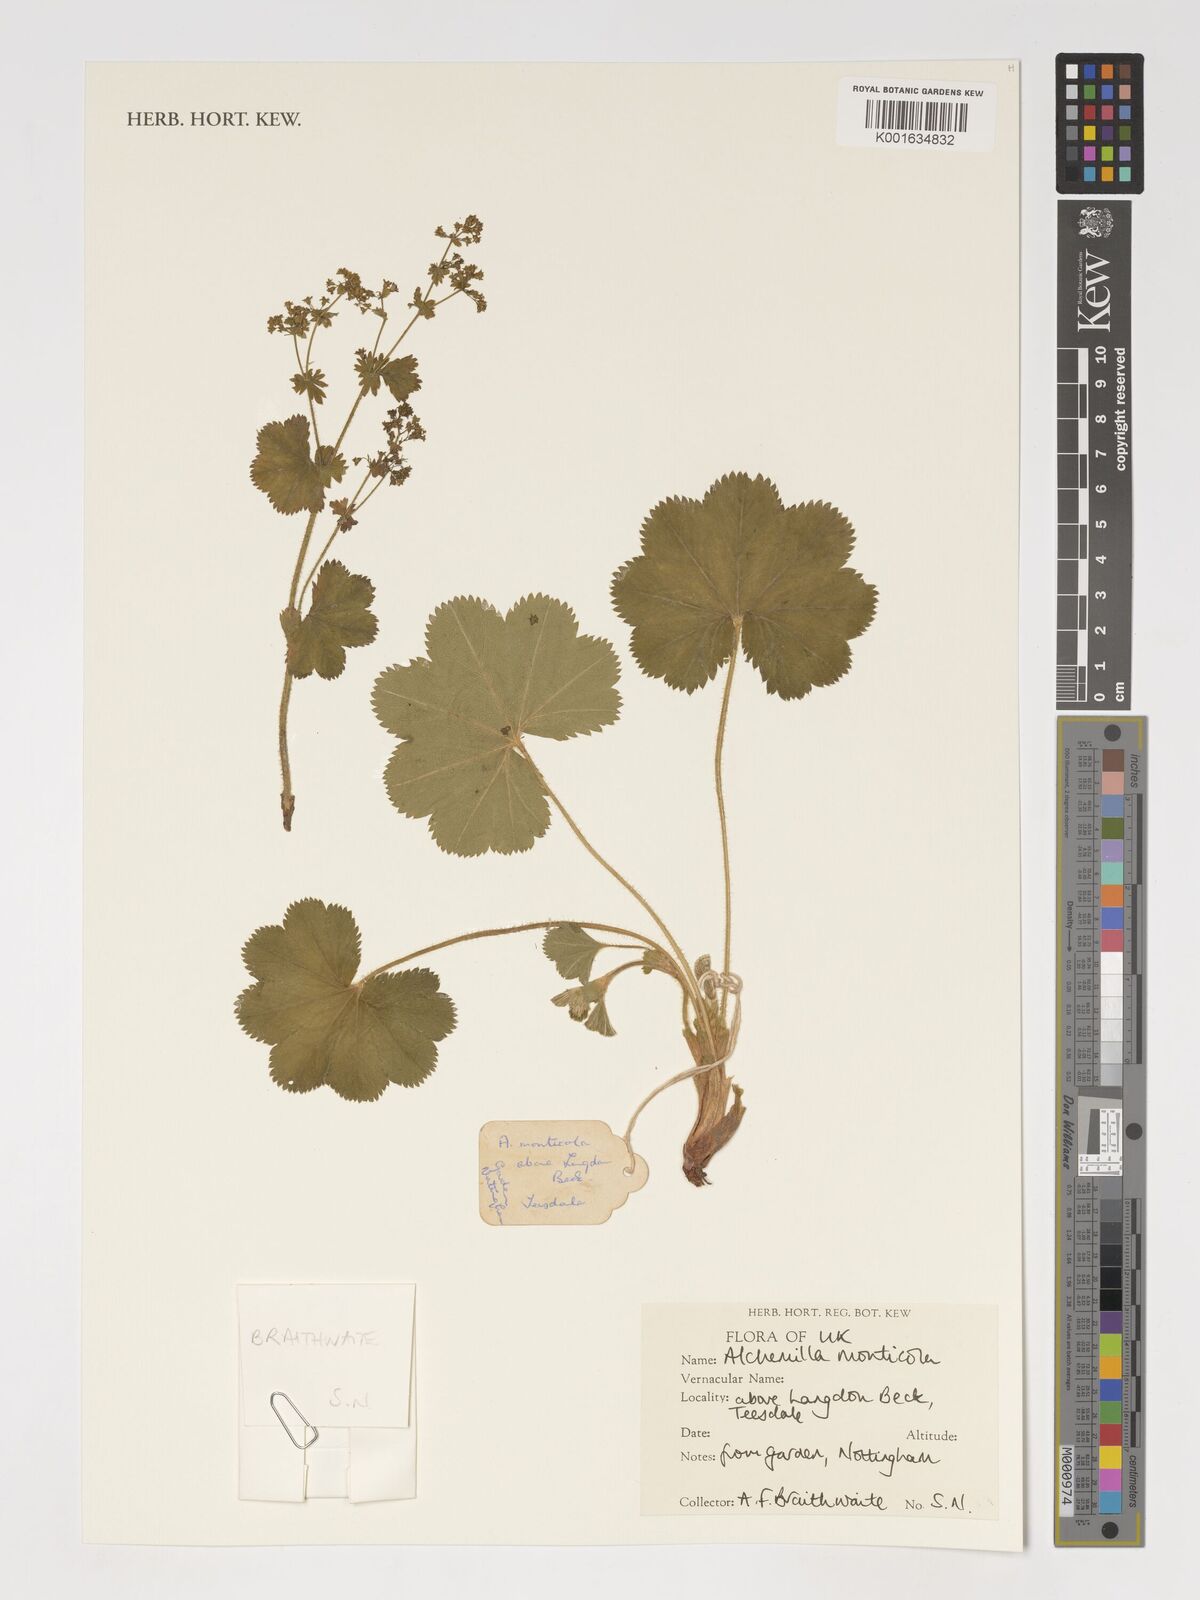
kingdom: Plantae
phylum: Tracheophyta
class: Magnoliopsida
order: Rosales
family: Rosaceae
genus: Alchemilla
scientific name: Alchemilla monticola
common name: Hairy lady's mantle
